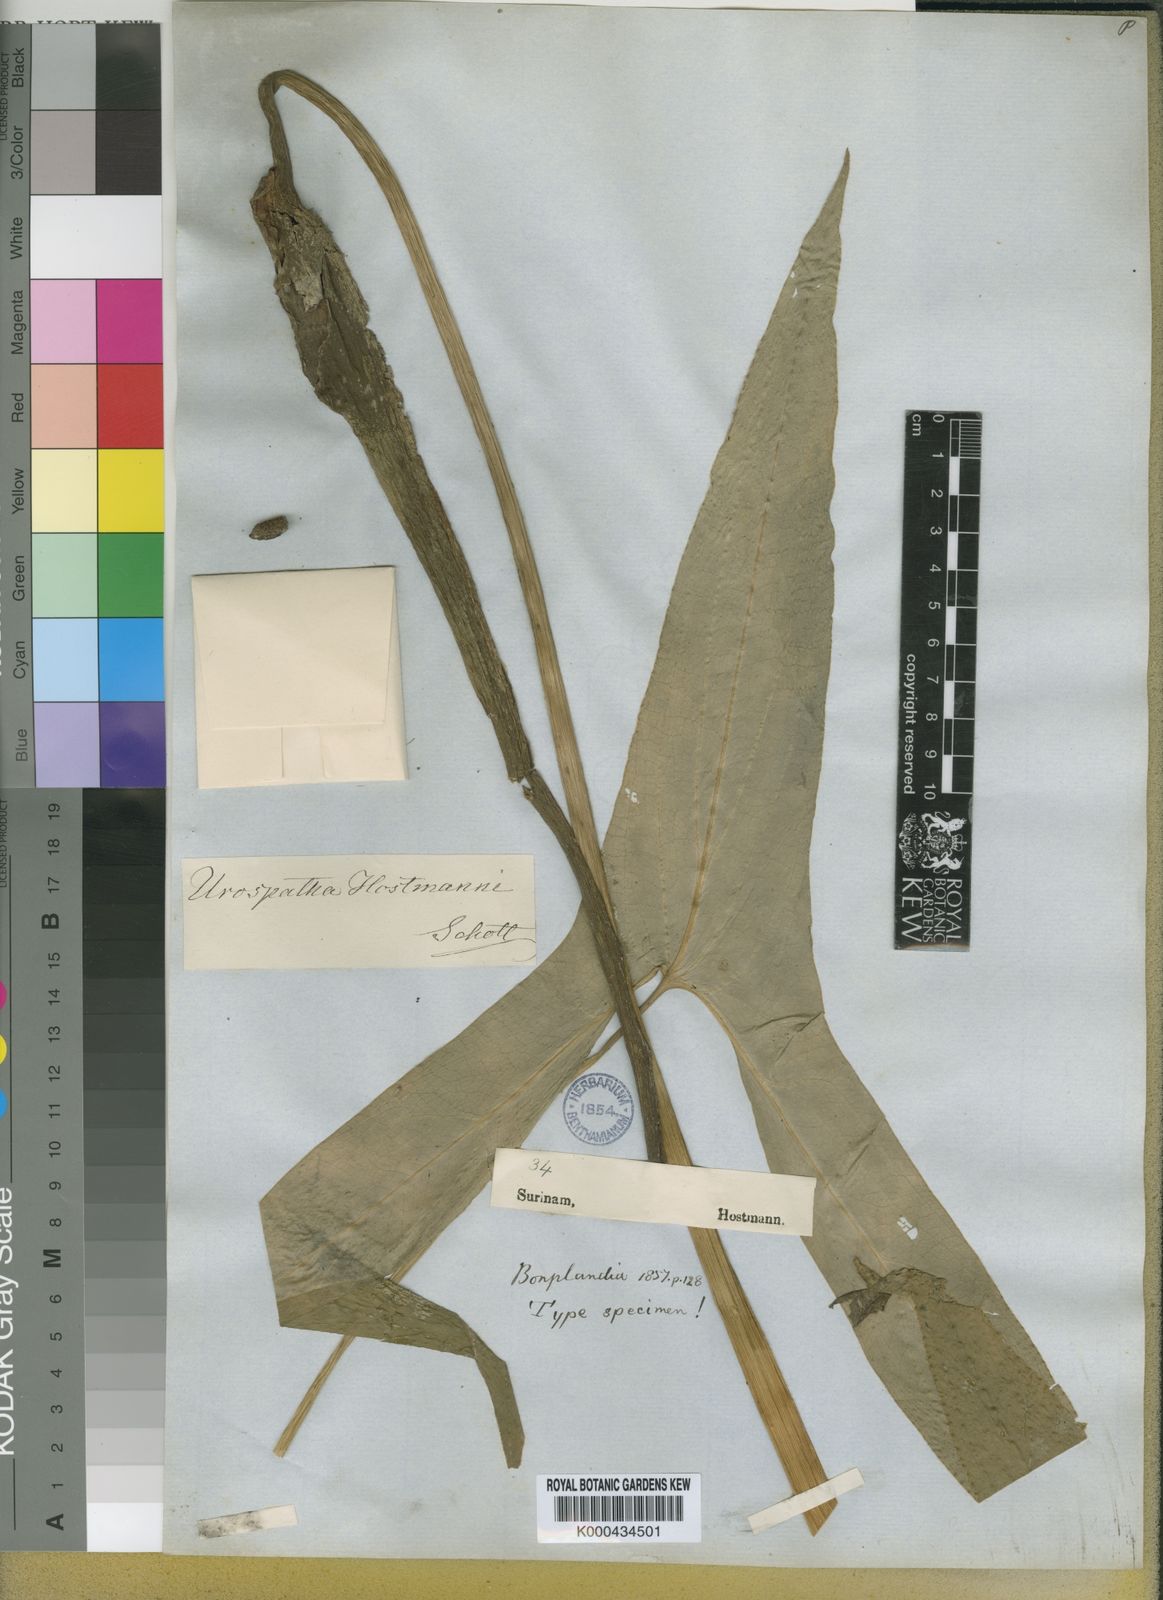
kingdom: Plantae
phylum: Tracheophyta
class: Liliopsida
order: Alismatales
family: Araceae
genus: Urospatha
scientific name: Urospatha sagittifolia
